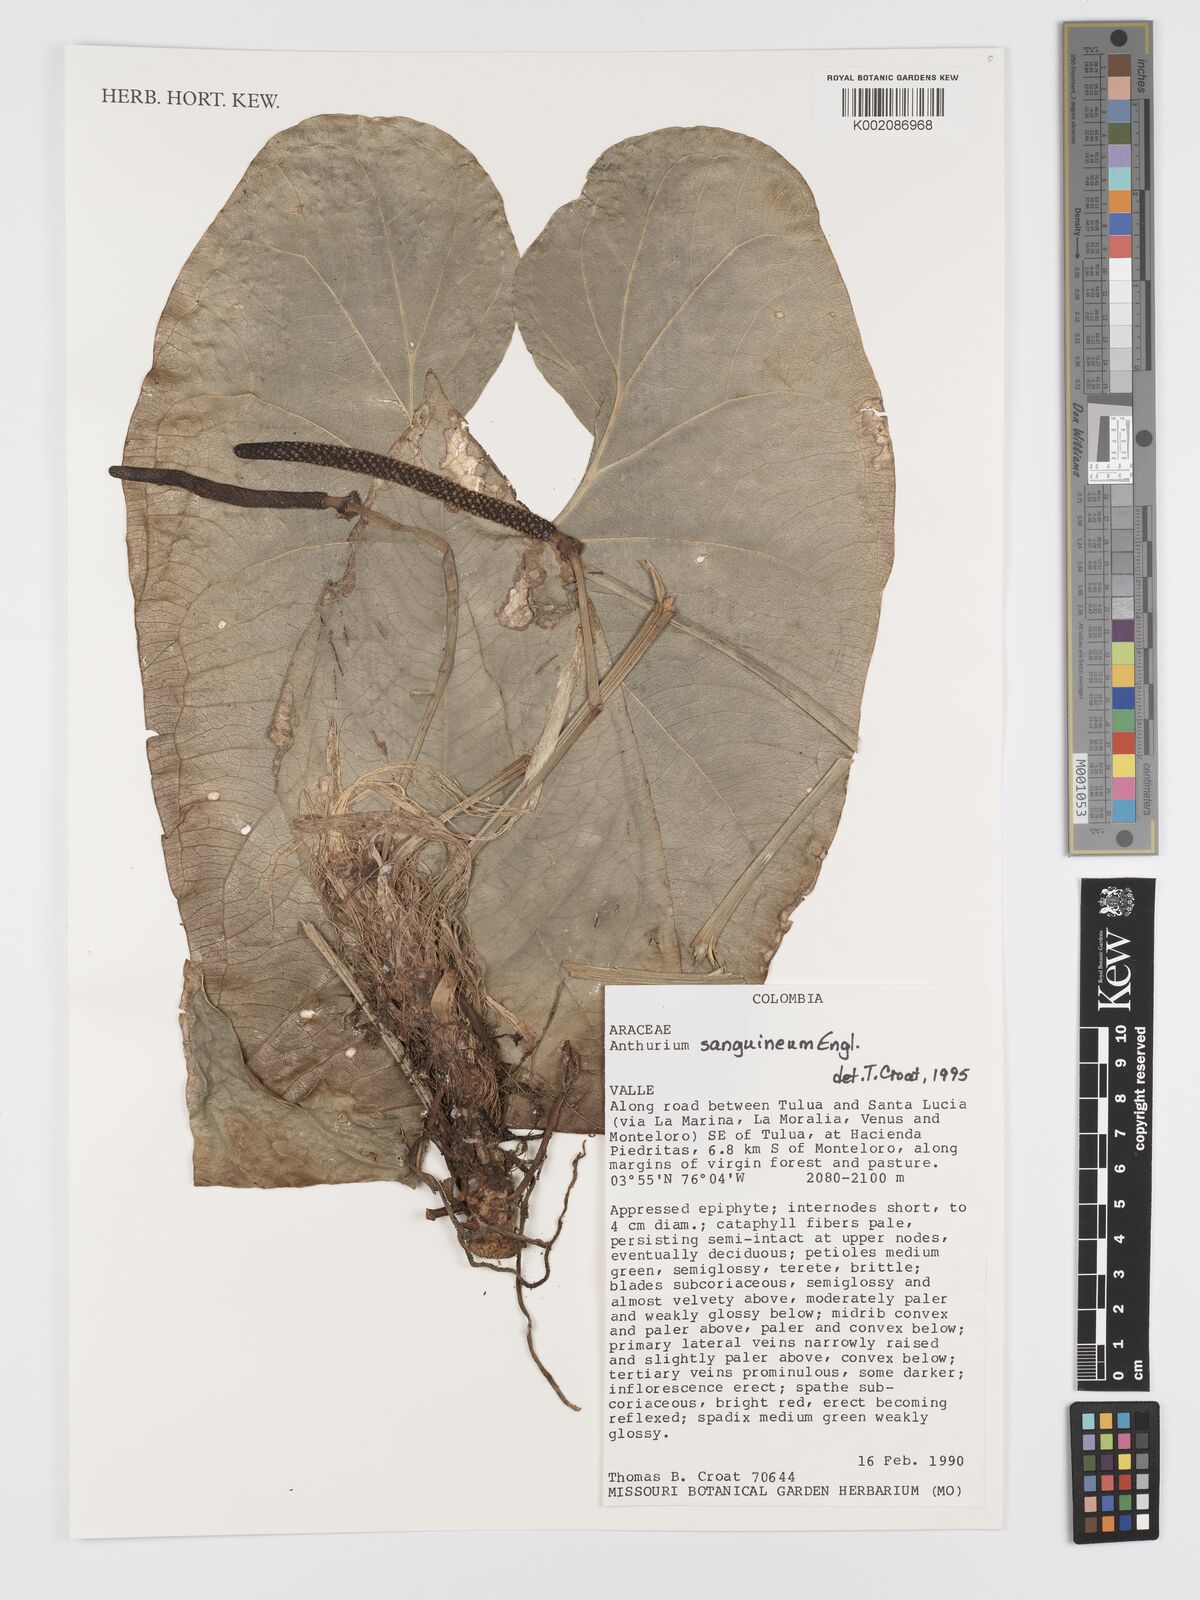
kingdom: Plantae
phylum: Tracheophyta
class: Liliopsida
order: Alismatales
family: Araceae
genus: Anthurium
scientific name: Anthurium sanguineum
